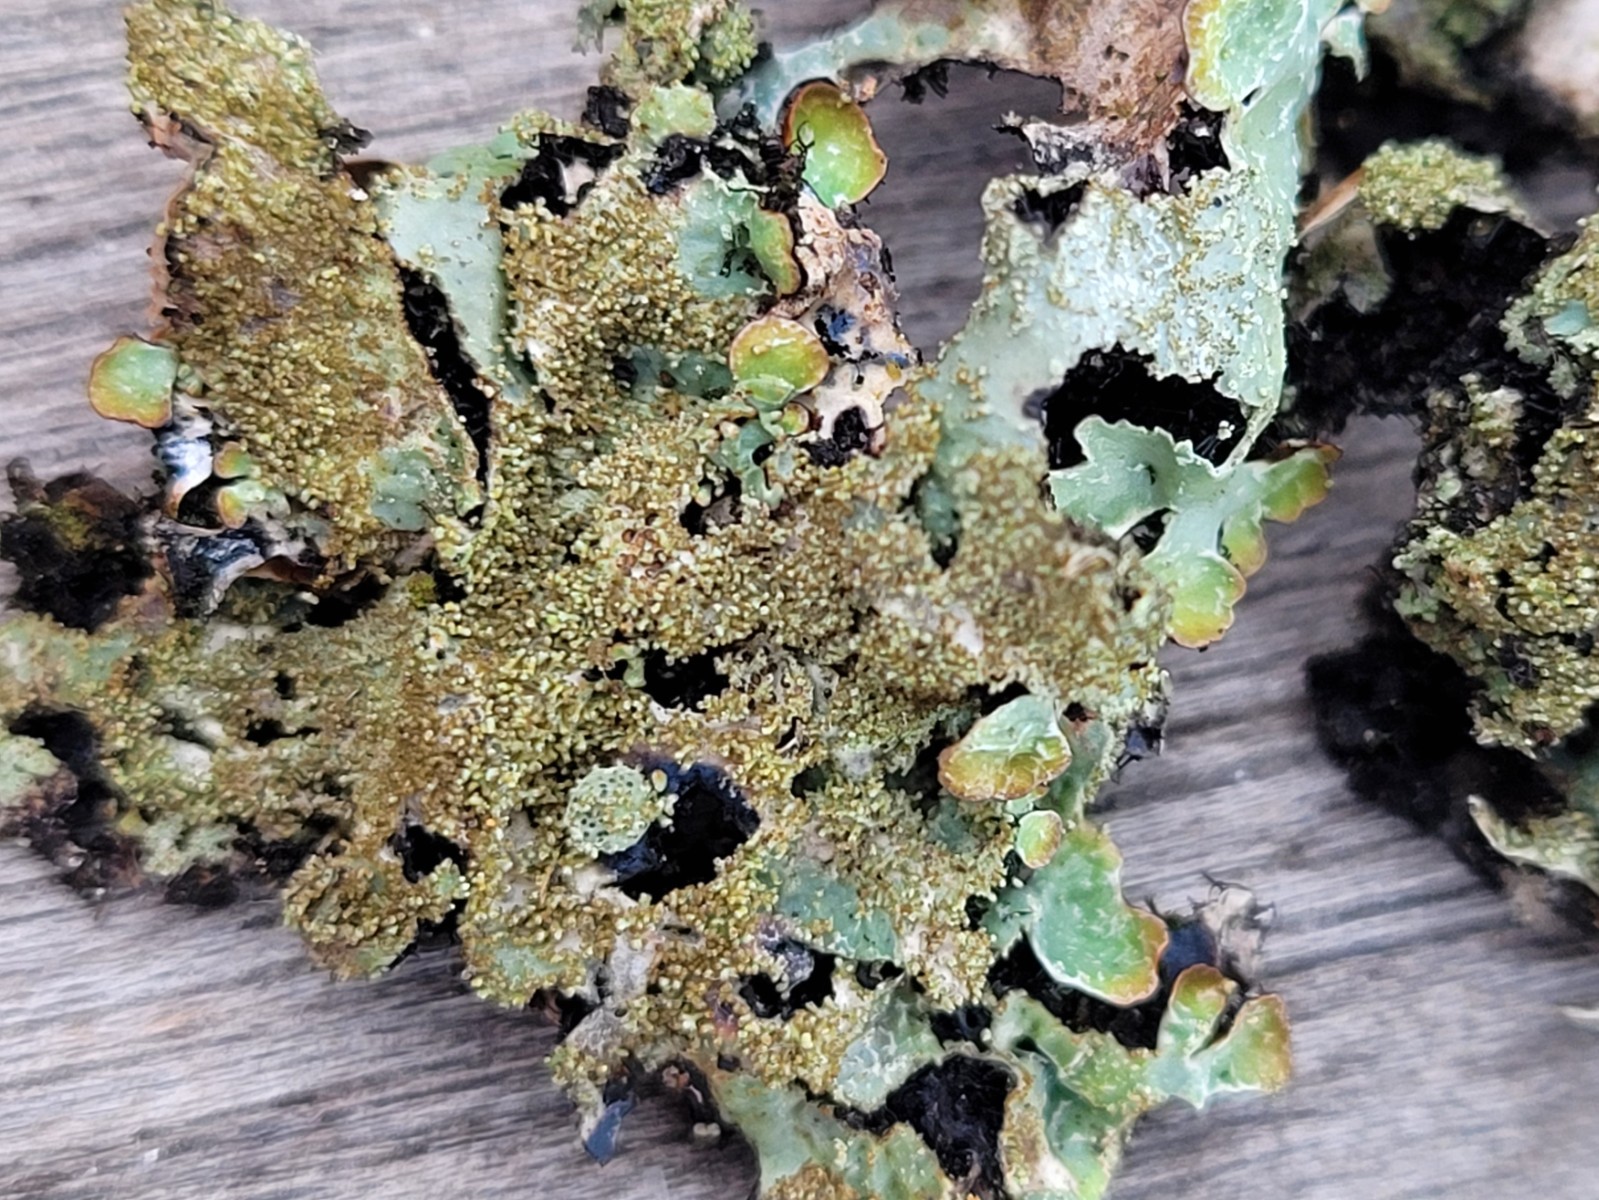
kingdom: Fungi
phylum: Ascomycota
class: Lecanoromycetes
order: Lecanorales
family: Parmeliaceae
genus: Parmelia
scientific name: Parmelia saxatilis
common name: farve-skållav
